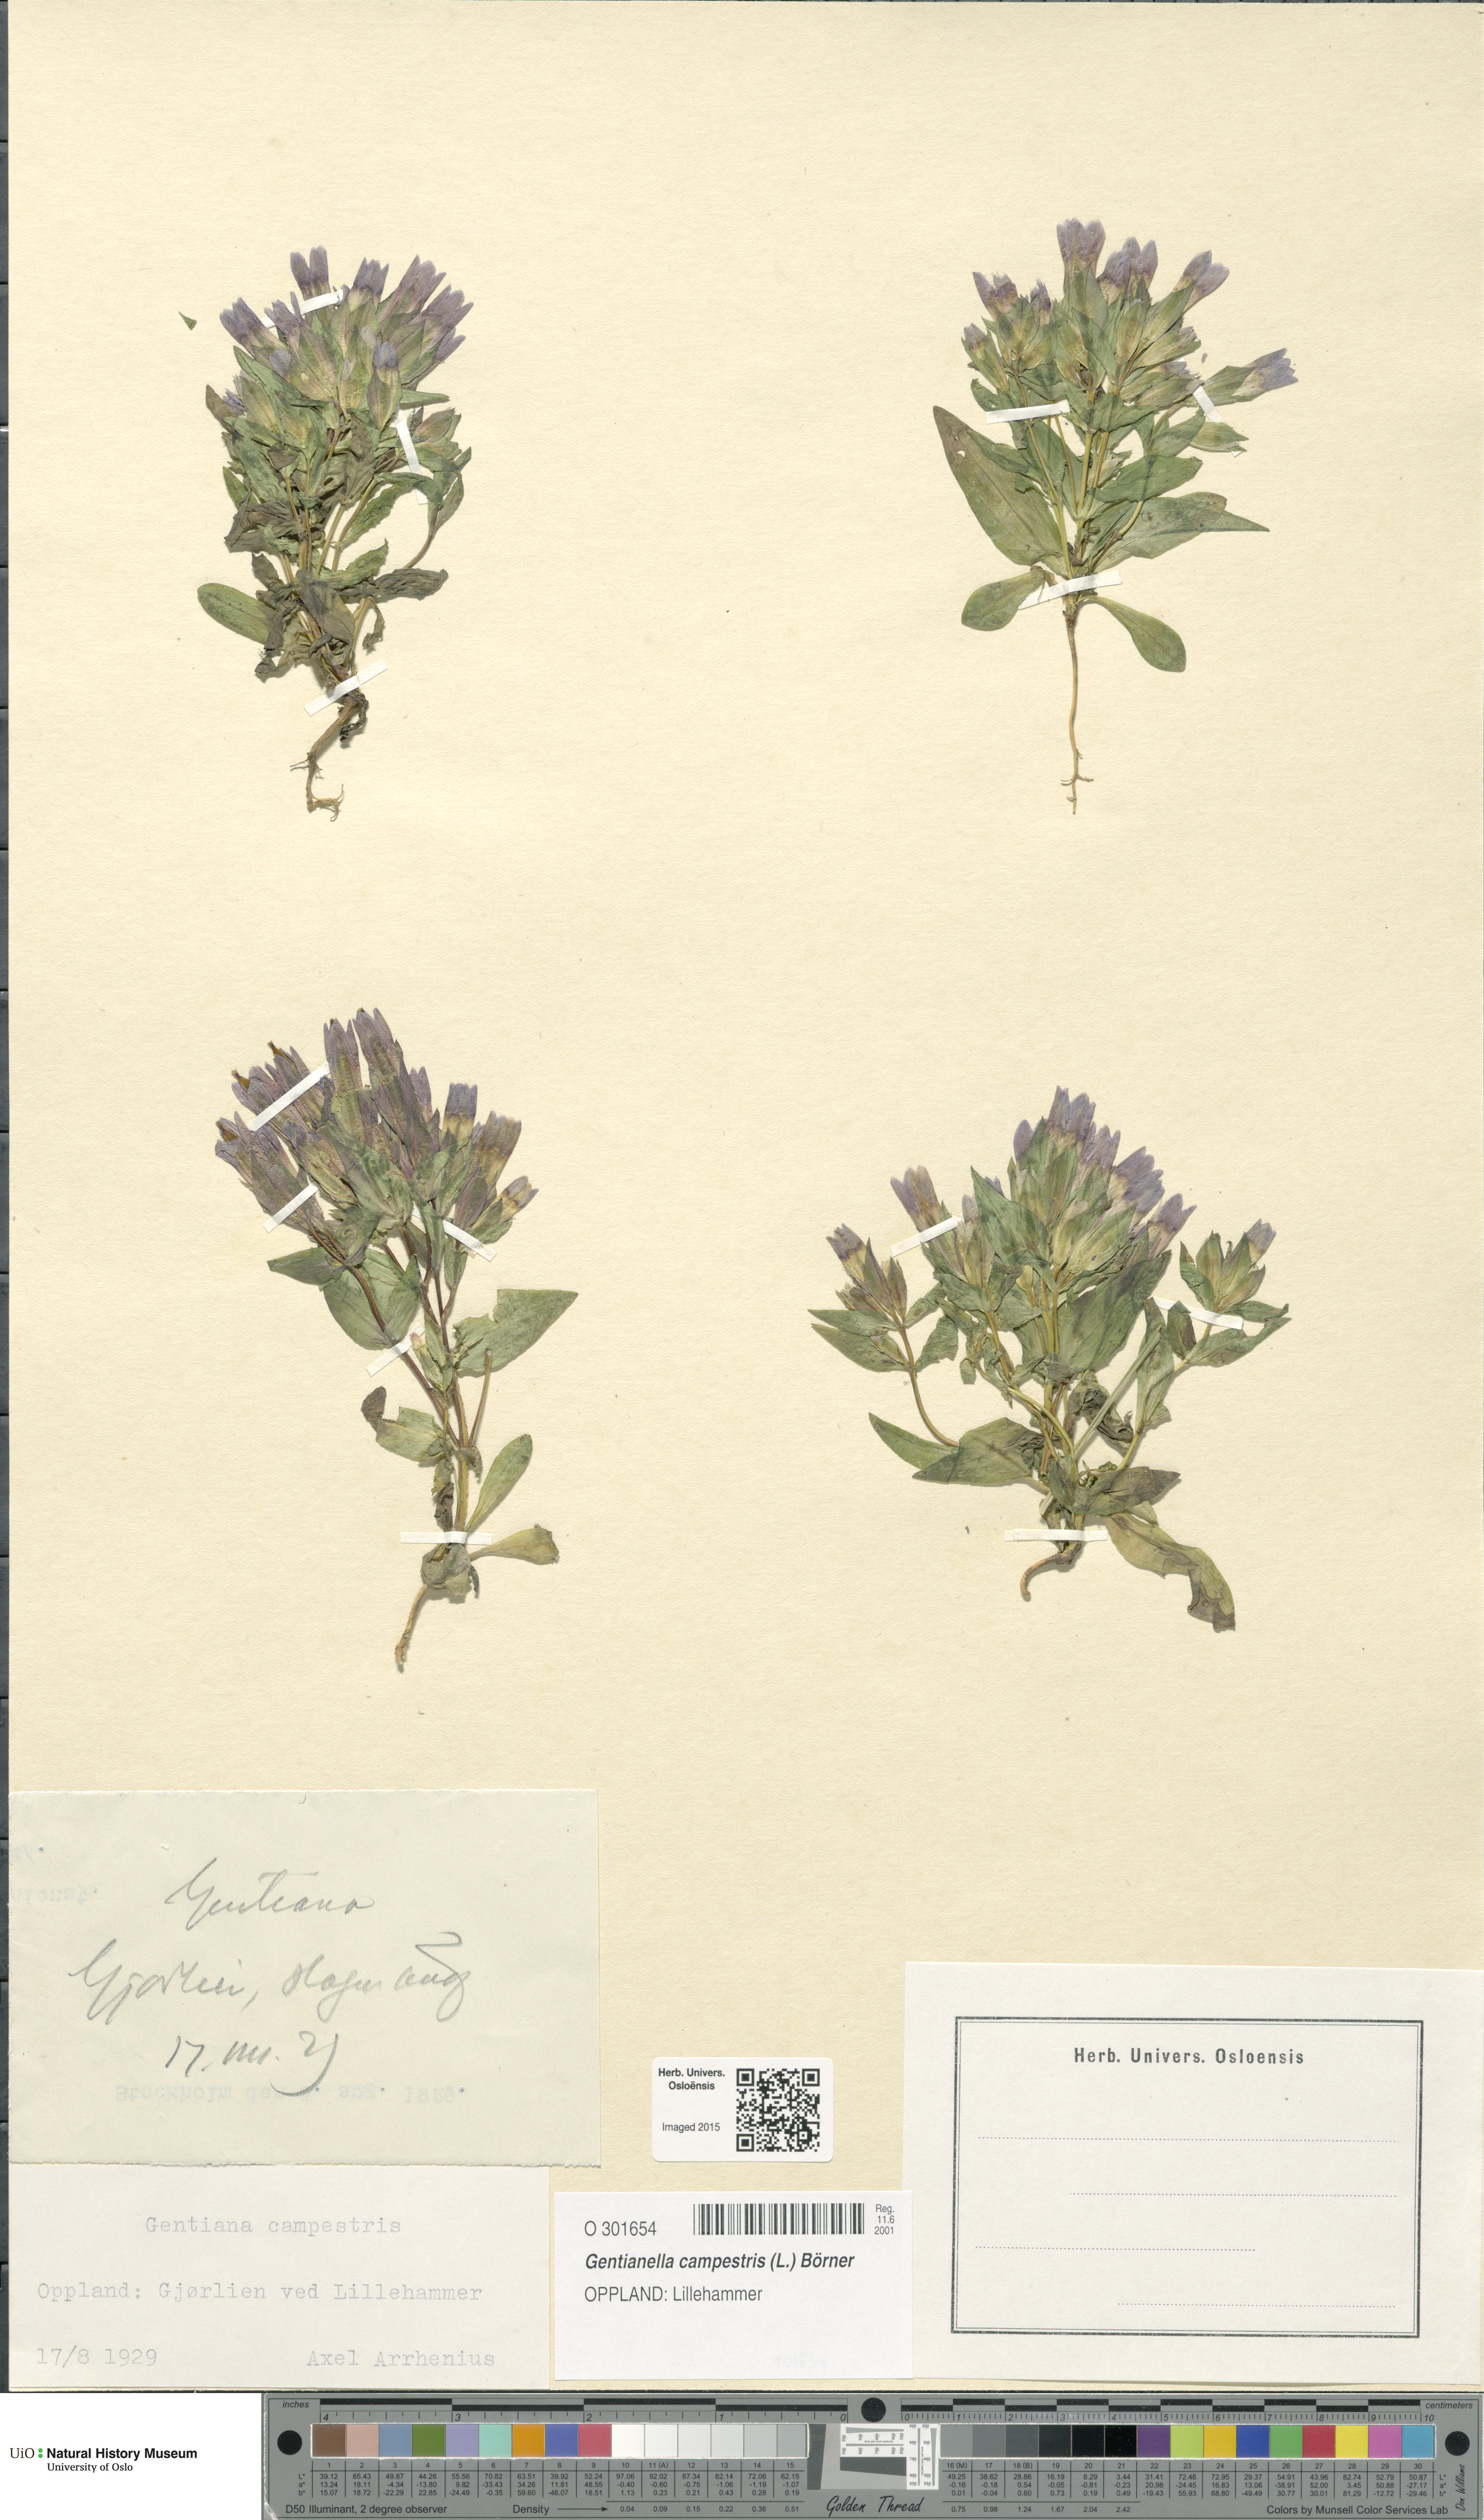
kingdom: Plantae
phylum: Tracheophyta
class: Magnoliopsida
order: Gentianales
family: Gentianaceae
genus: Gentianella
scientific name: Gentianella campestris
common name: Field gentian
